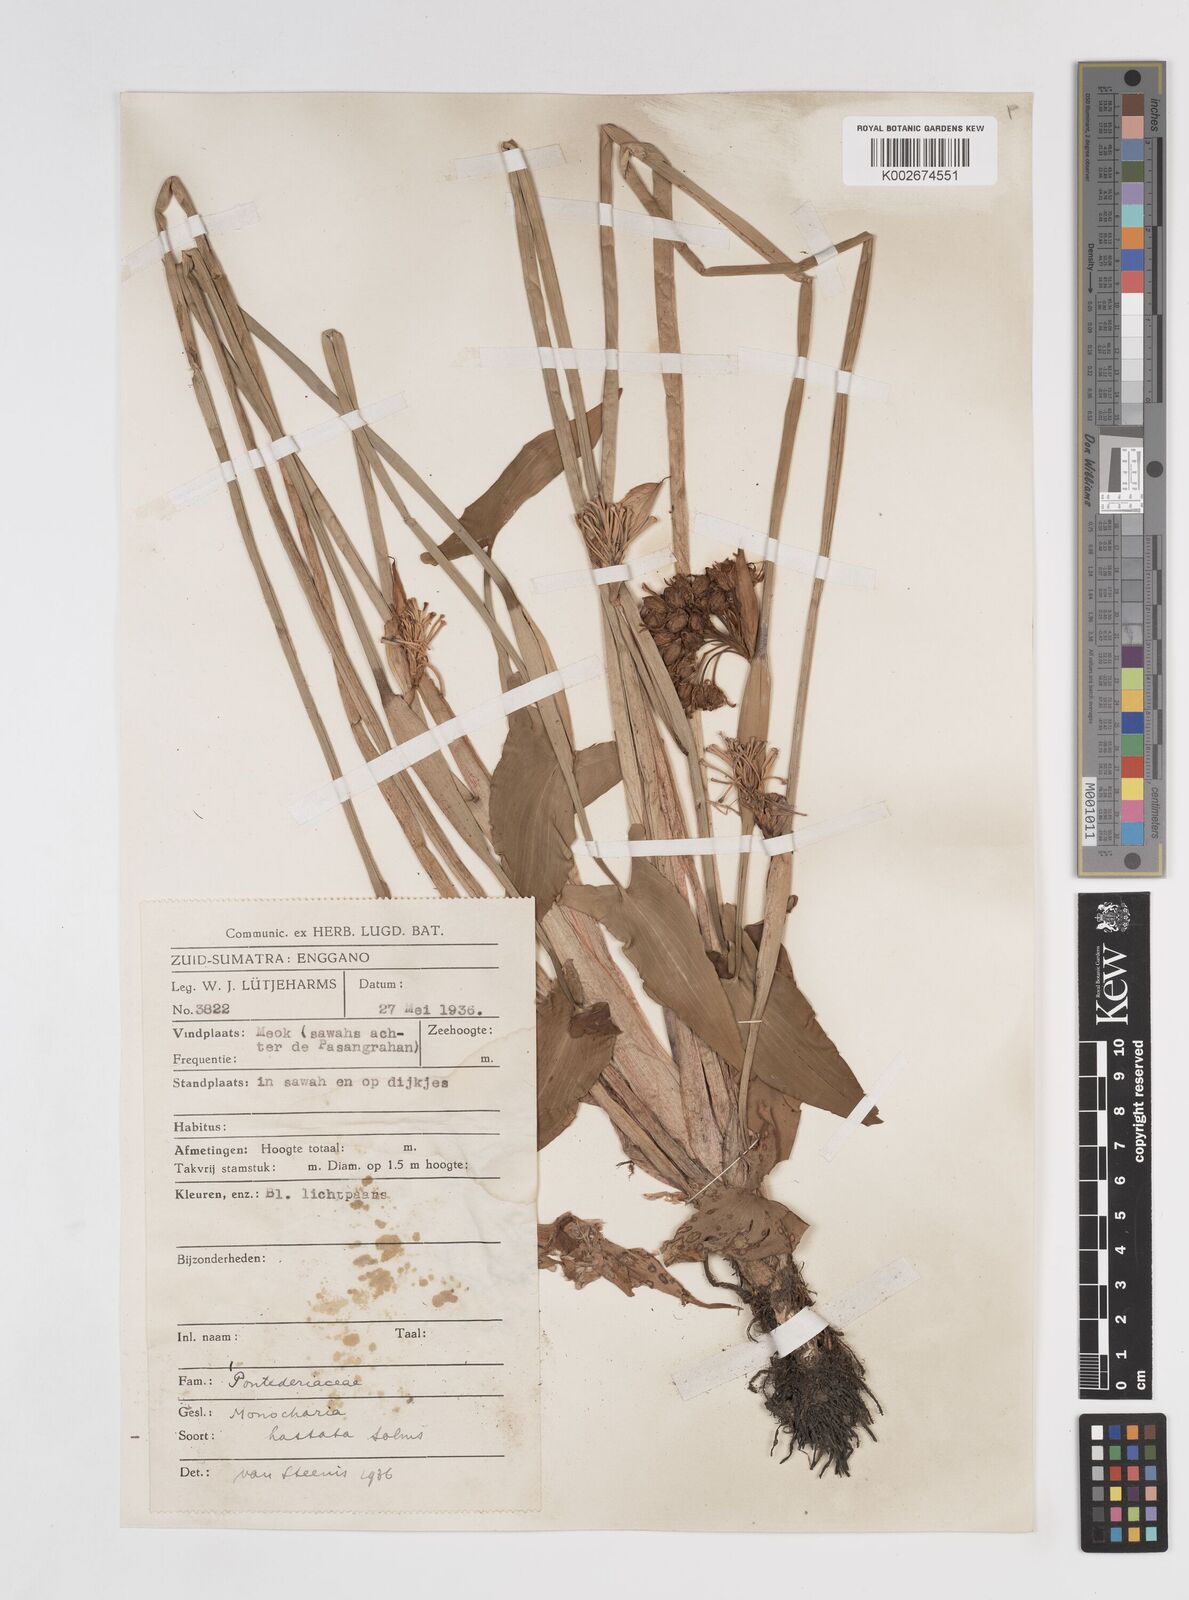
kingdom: Plantae
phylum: Tracheophyta
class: Liliopsida
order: Commelinales
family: Pontederiaceae
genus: Pontederia
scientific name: Pontederia hastata
